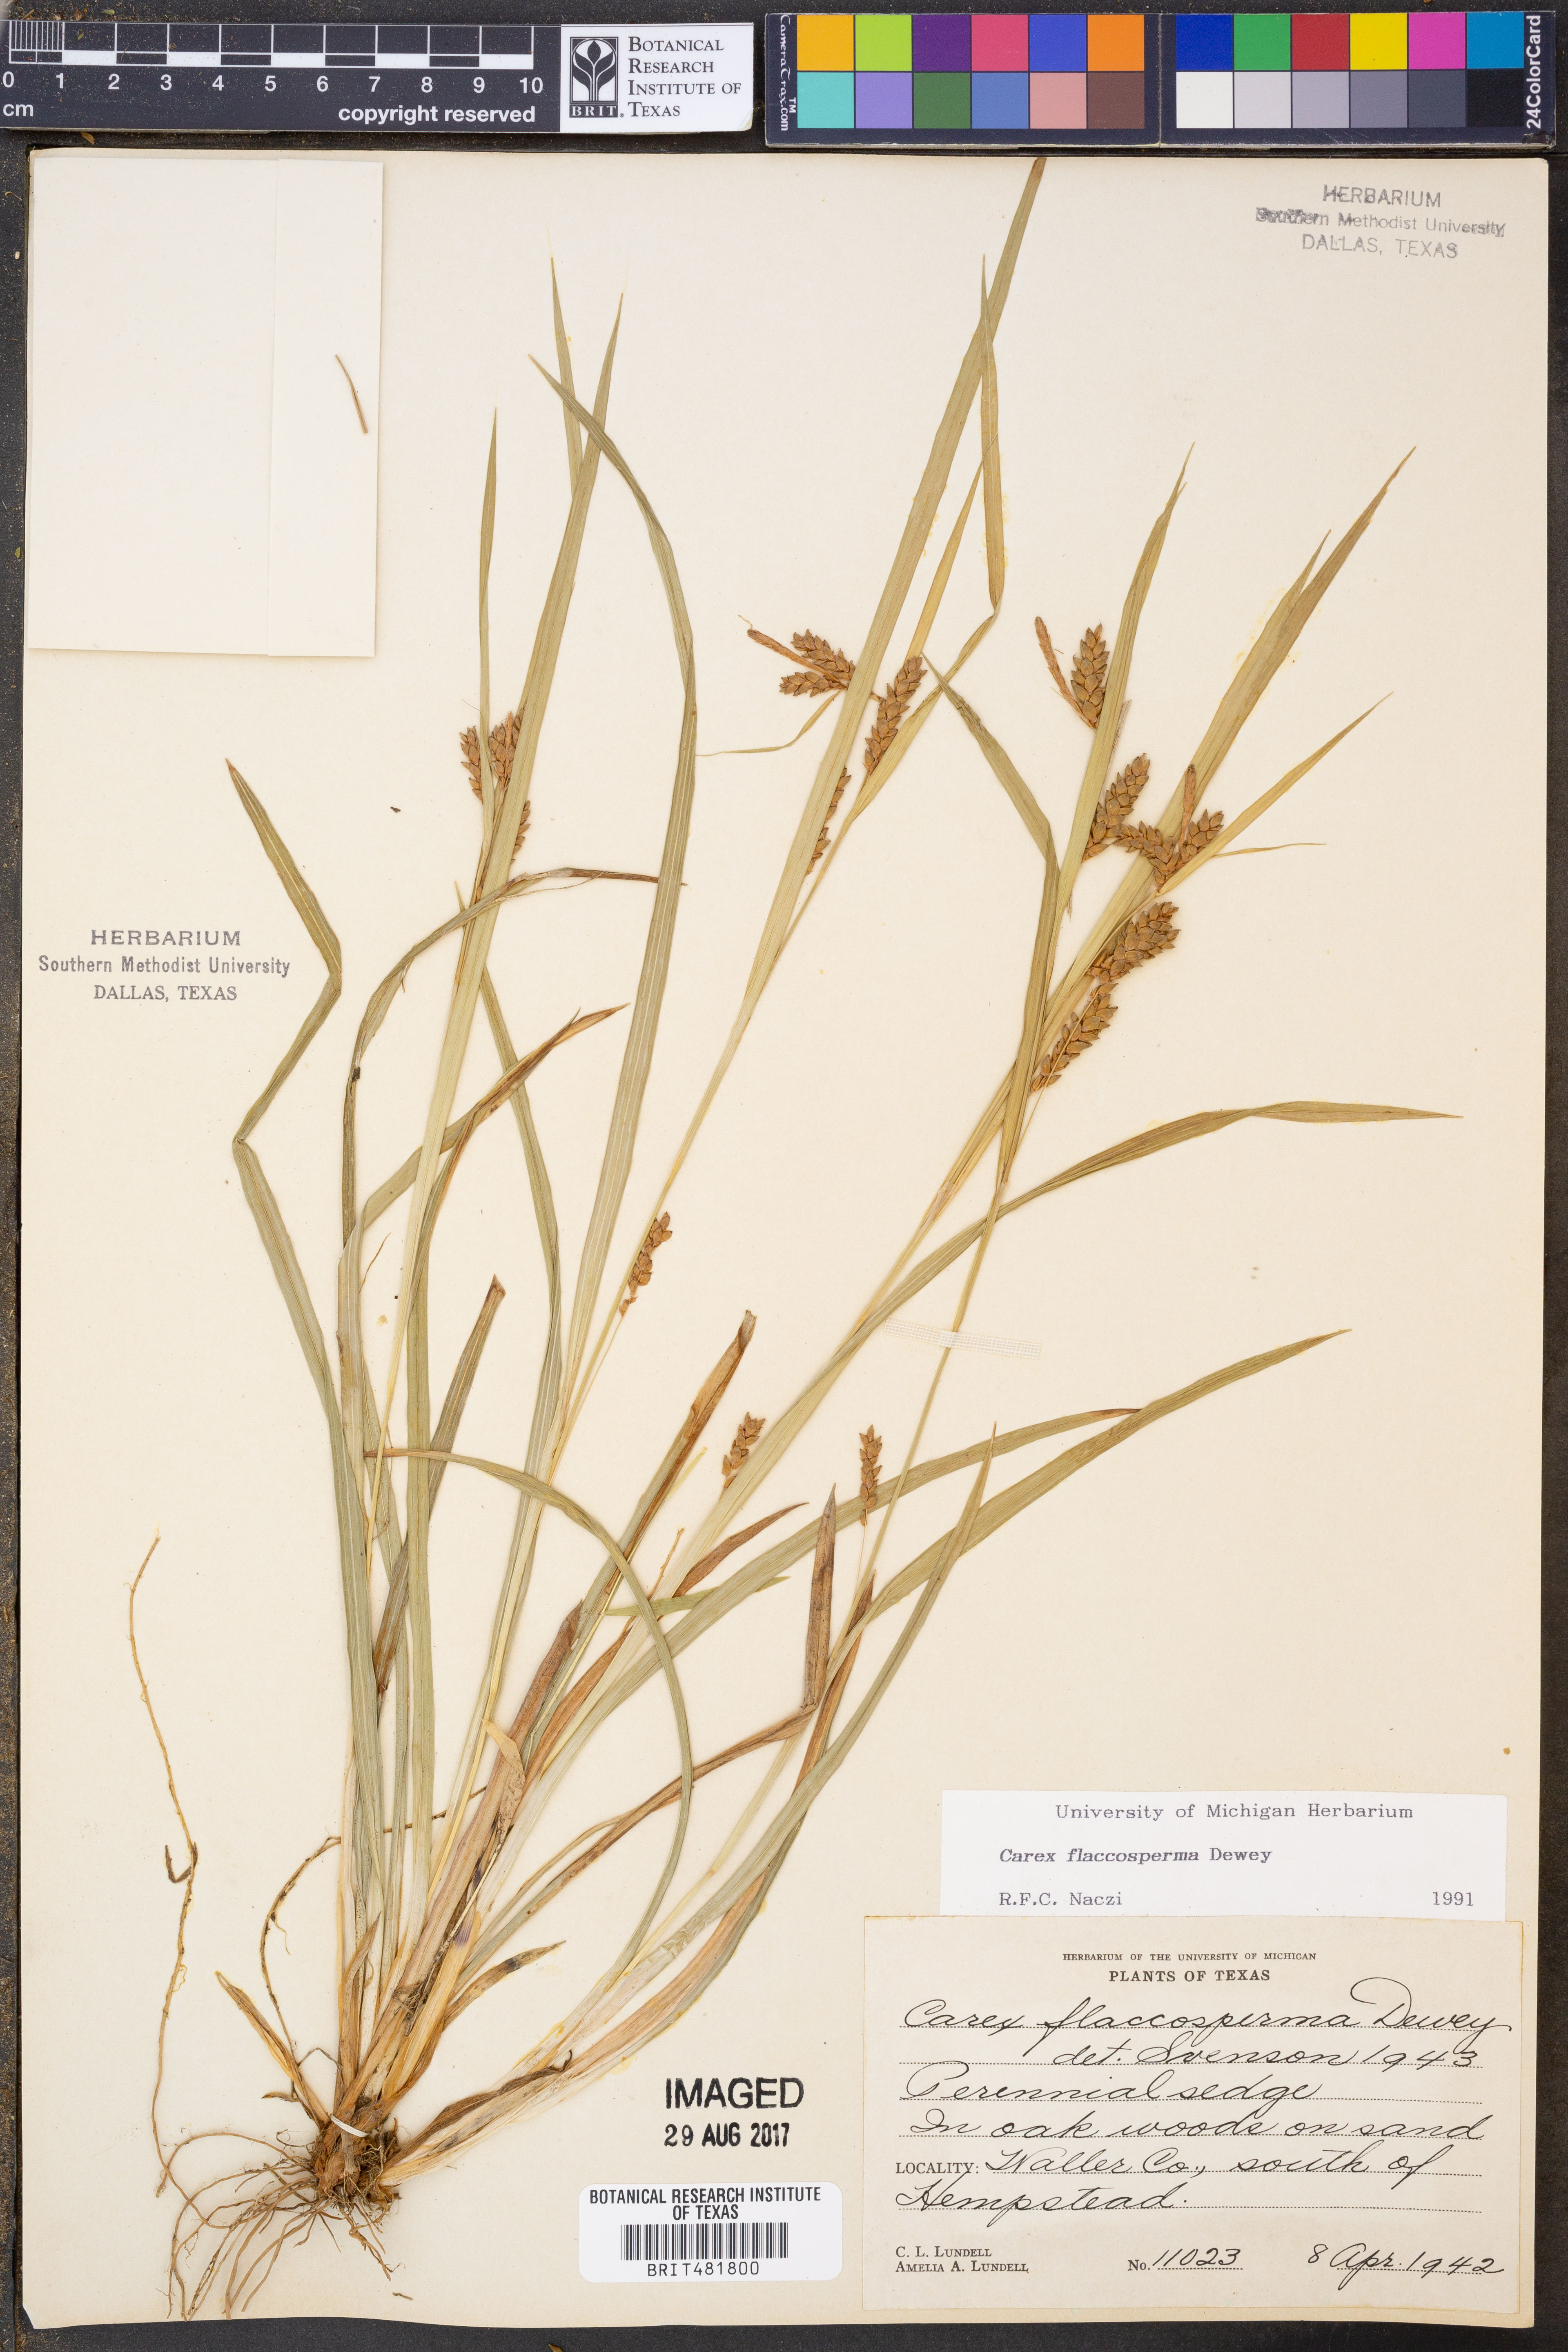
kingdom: Plantae
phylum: Tracheophyta
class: Liliopsida
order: Poales
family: Cyperaceae
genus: Carex
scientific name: Carex flaccosperma
